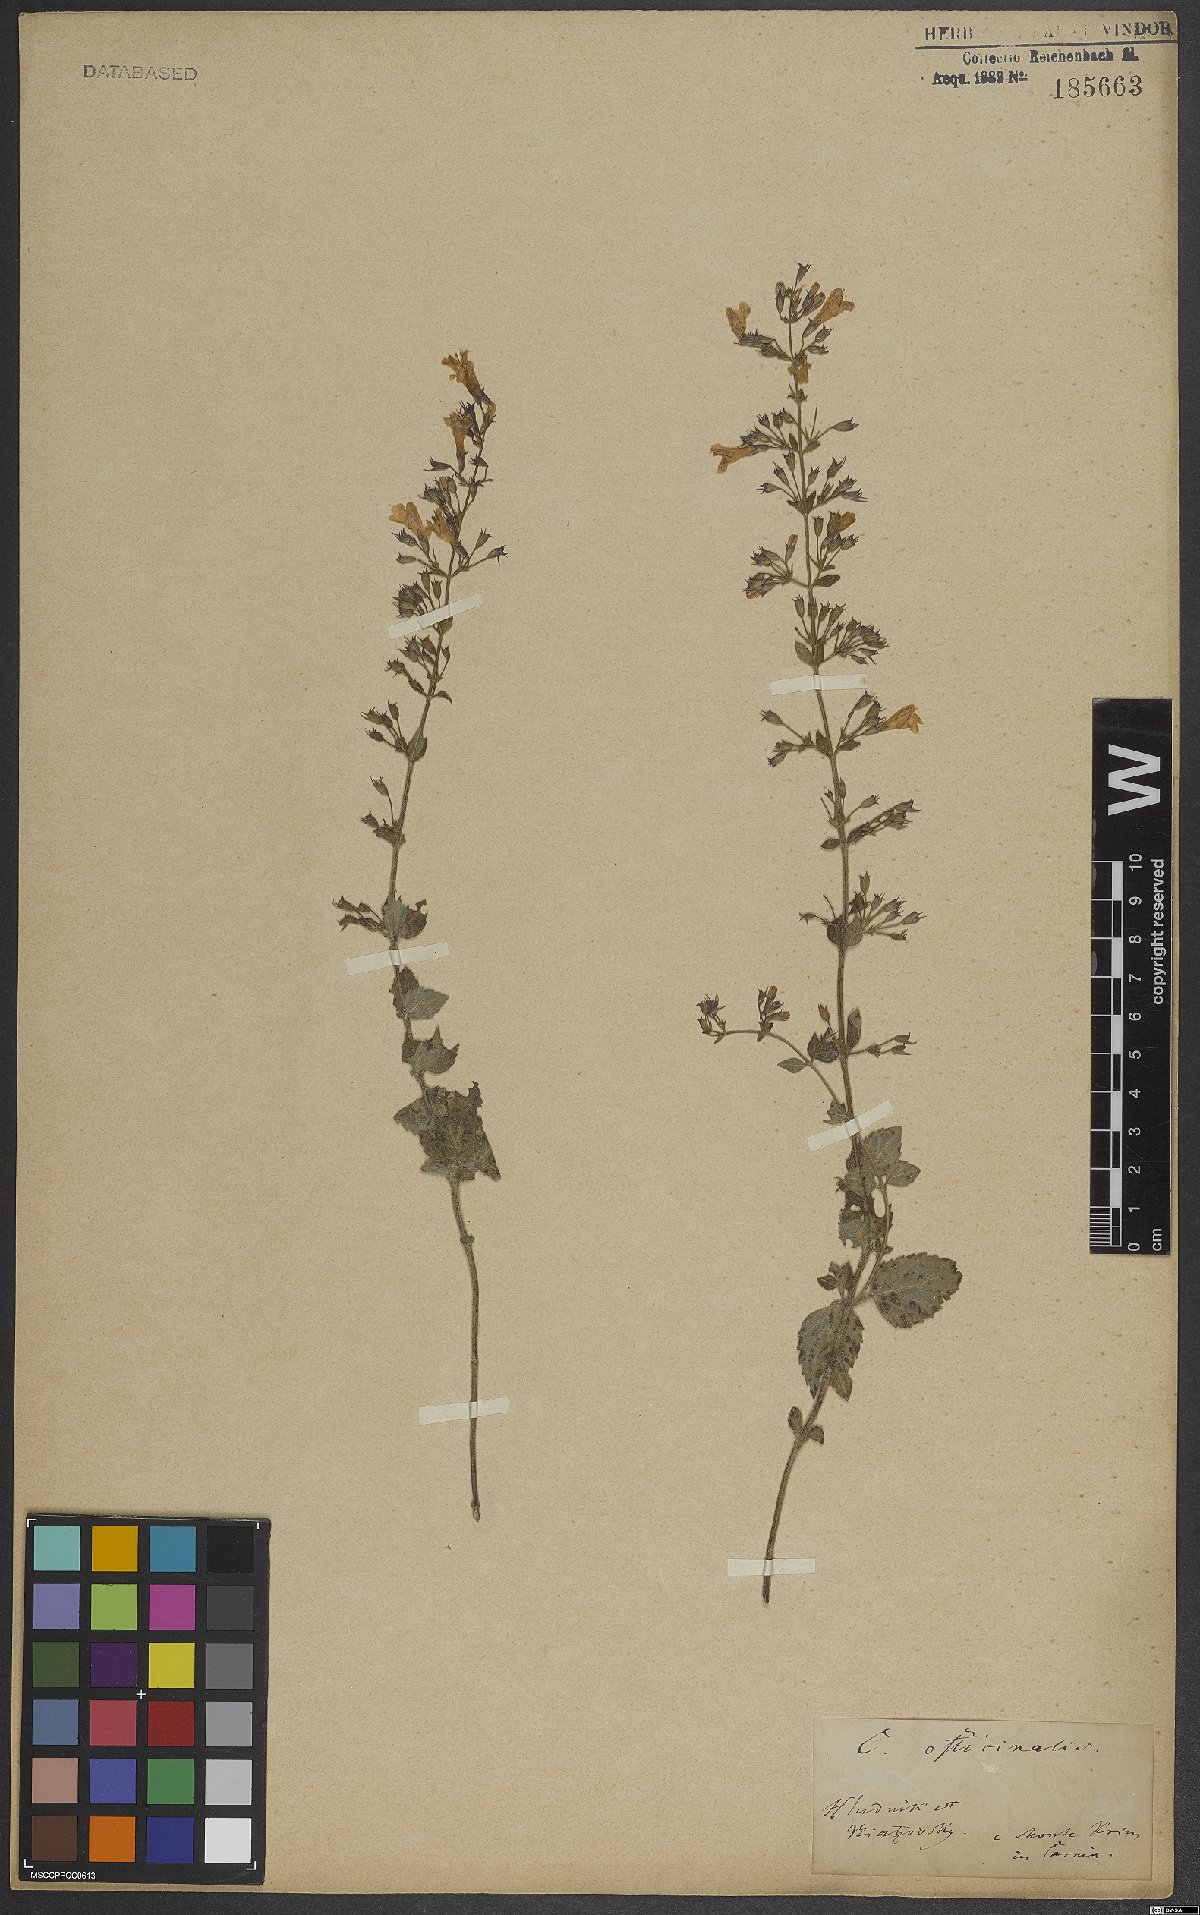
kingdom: Plantae
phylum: Tracheophyta
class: Magnoliopsida
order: Lamiales
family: Lamiaceae
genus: Clinopodium
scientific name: Clinopodium nepeta
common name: Lesser calamint
